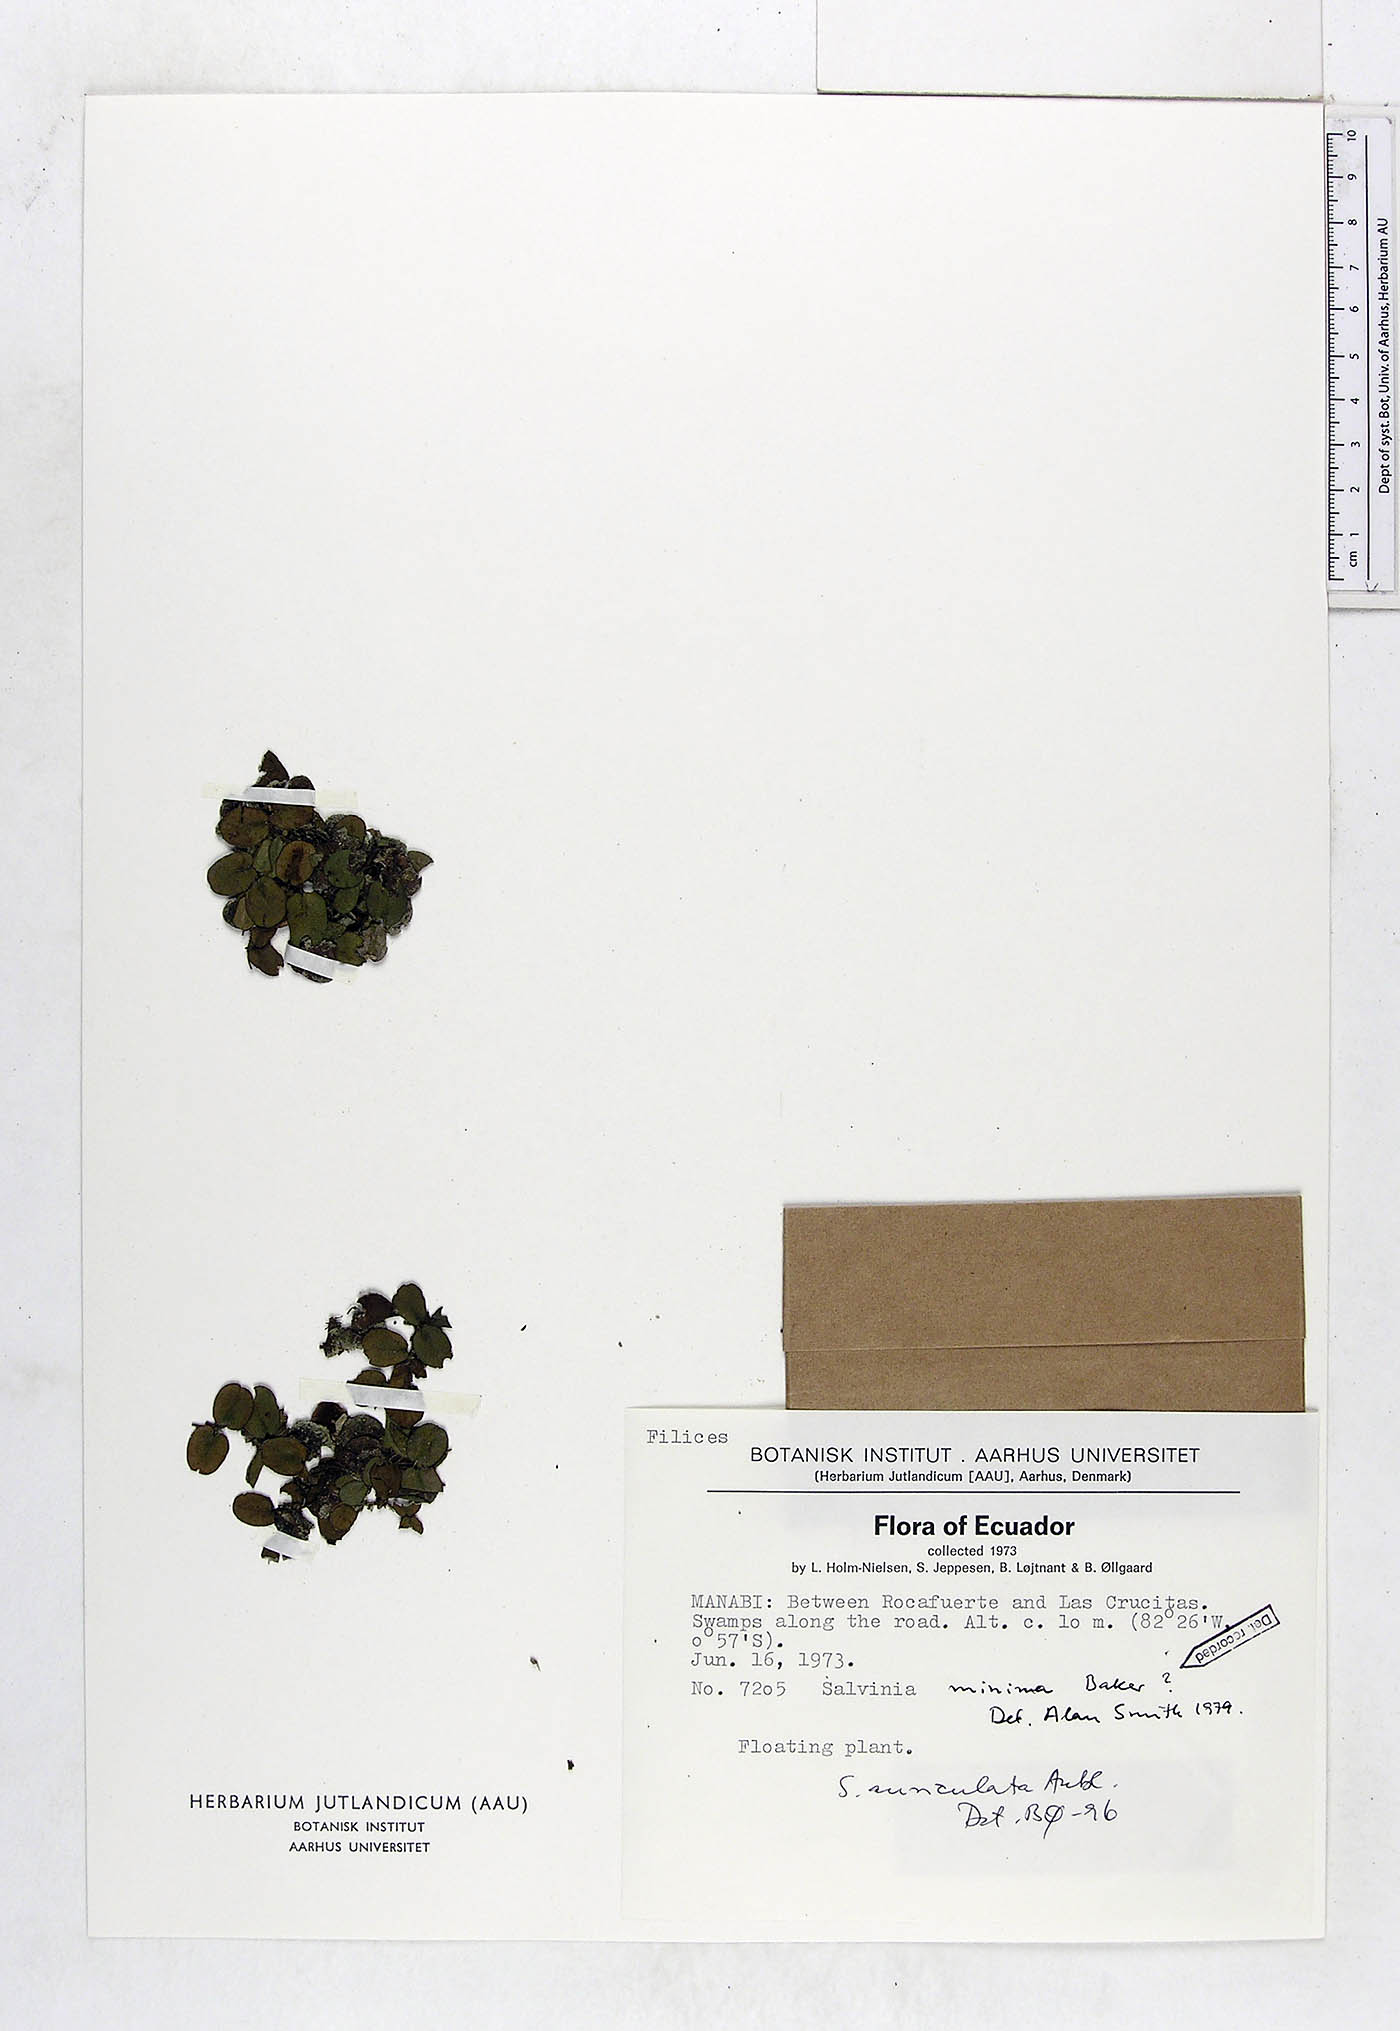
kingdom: Plantae
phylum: Tracheophyta
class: Polypodiopsida
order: Salviniales
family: Salviniaceae
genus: Salvinia
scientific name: Salvinia minima
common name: Water spangles
